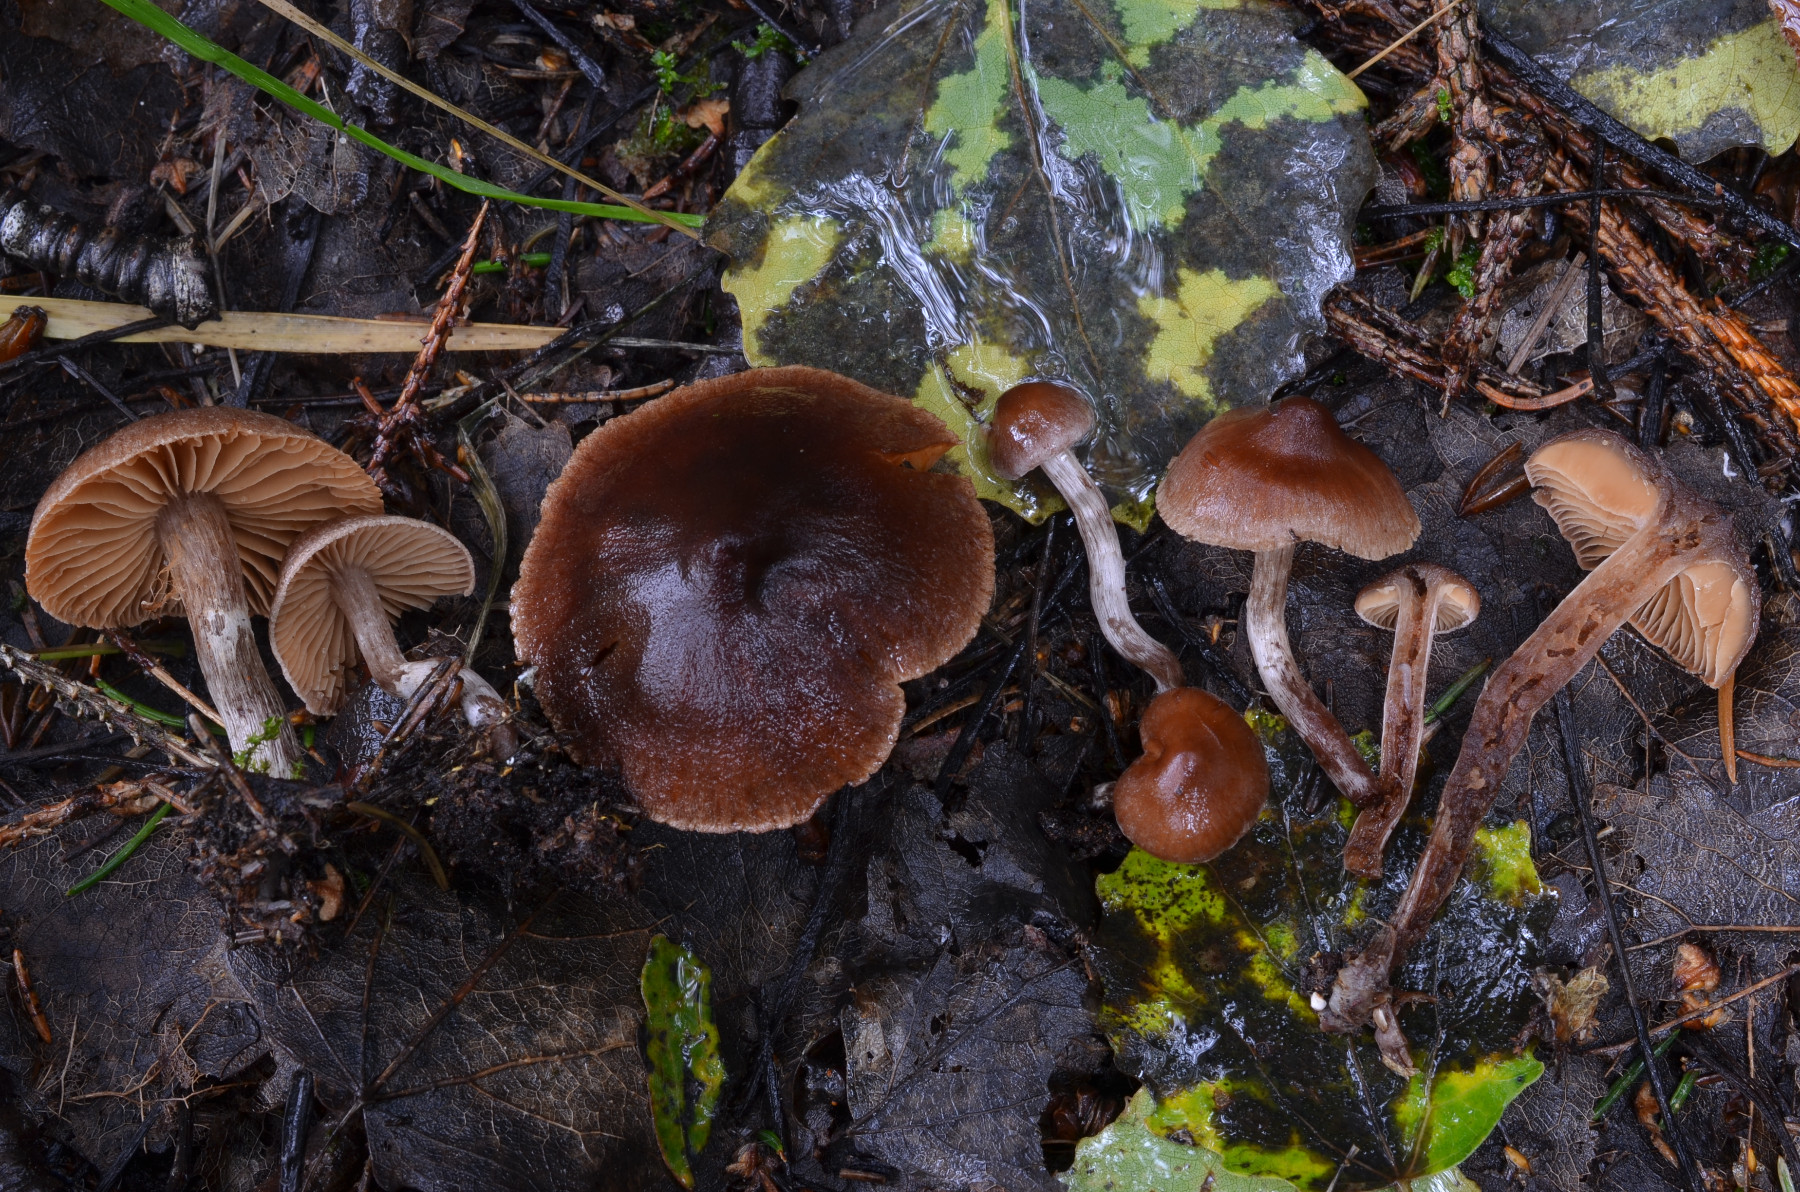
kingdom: Fungi
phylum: Basidiomycota
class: Agaricomycetes
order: Agaricales
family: Cortinariaceae
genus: Cortinarius
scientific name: Cortinarius atroalbus
